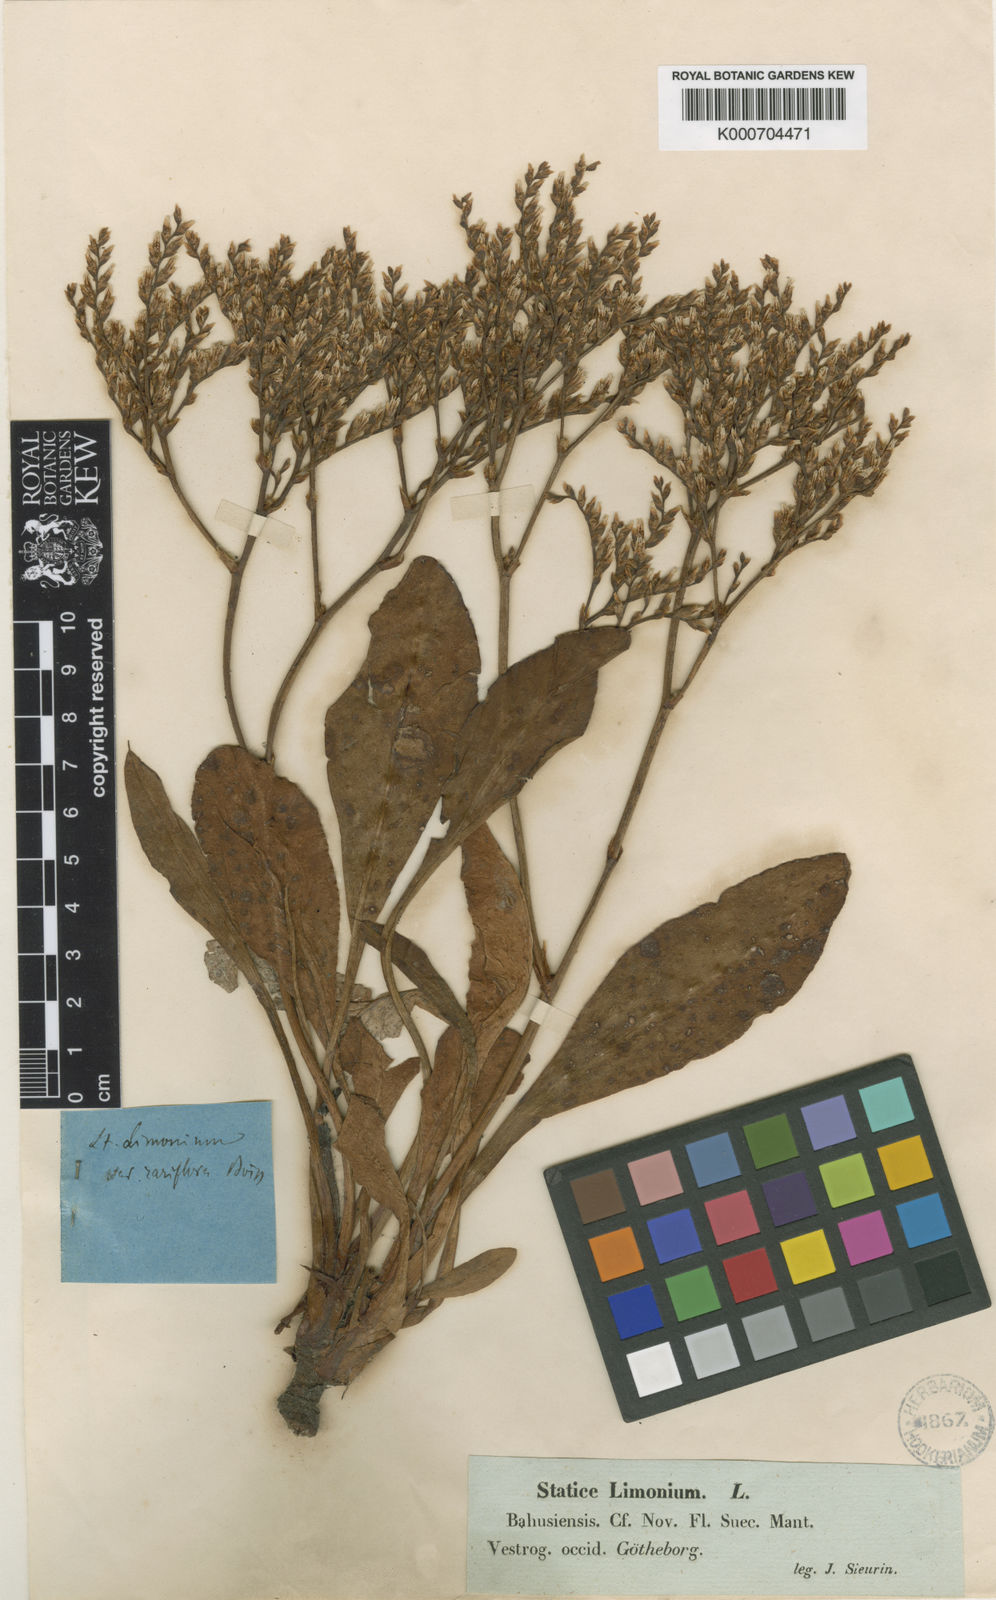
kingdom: Plantae
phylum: Tracheophyta
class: Magnoliopsida
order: Caryophyllales
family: Plumbaginaceae
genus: Limonium
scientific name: Limonium humile
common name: Lax-flowered sea-lavender
